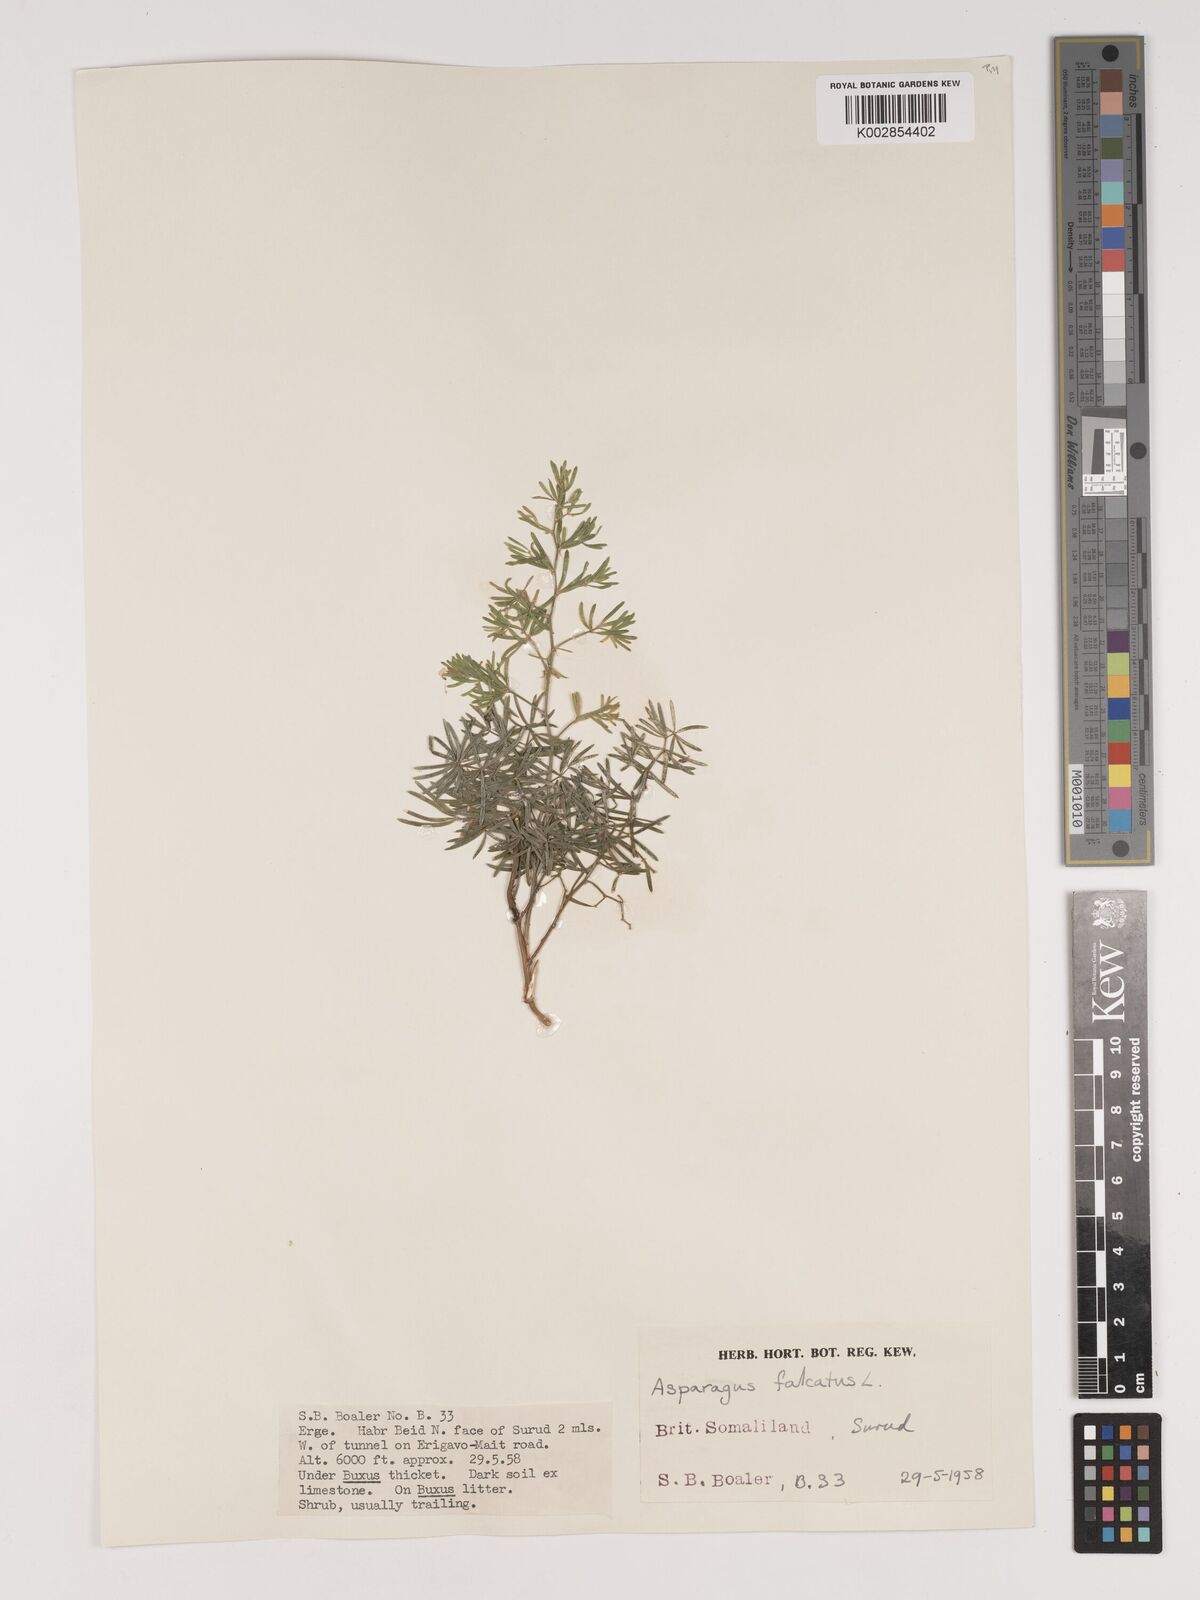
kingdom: Plantae
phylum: Tracheophyta
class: Liliopsida
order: Asparagales
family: Asparagaceae
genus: Asparagus
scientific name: Asparagus falcatus
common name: Asparagus
